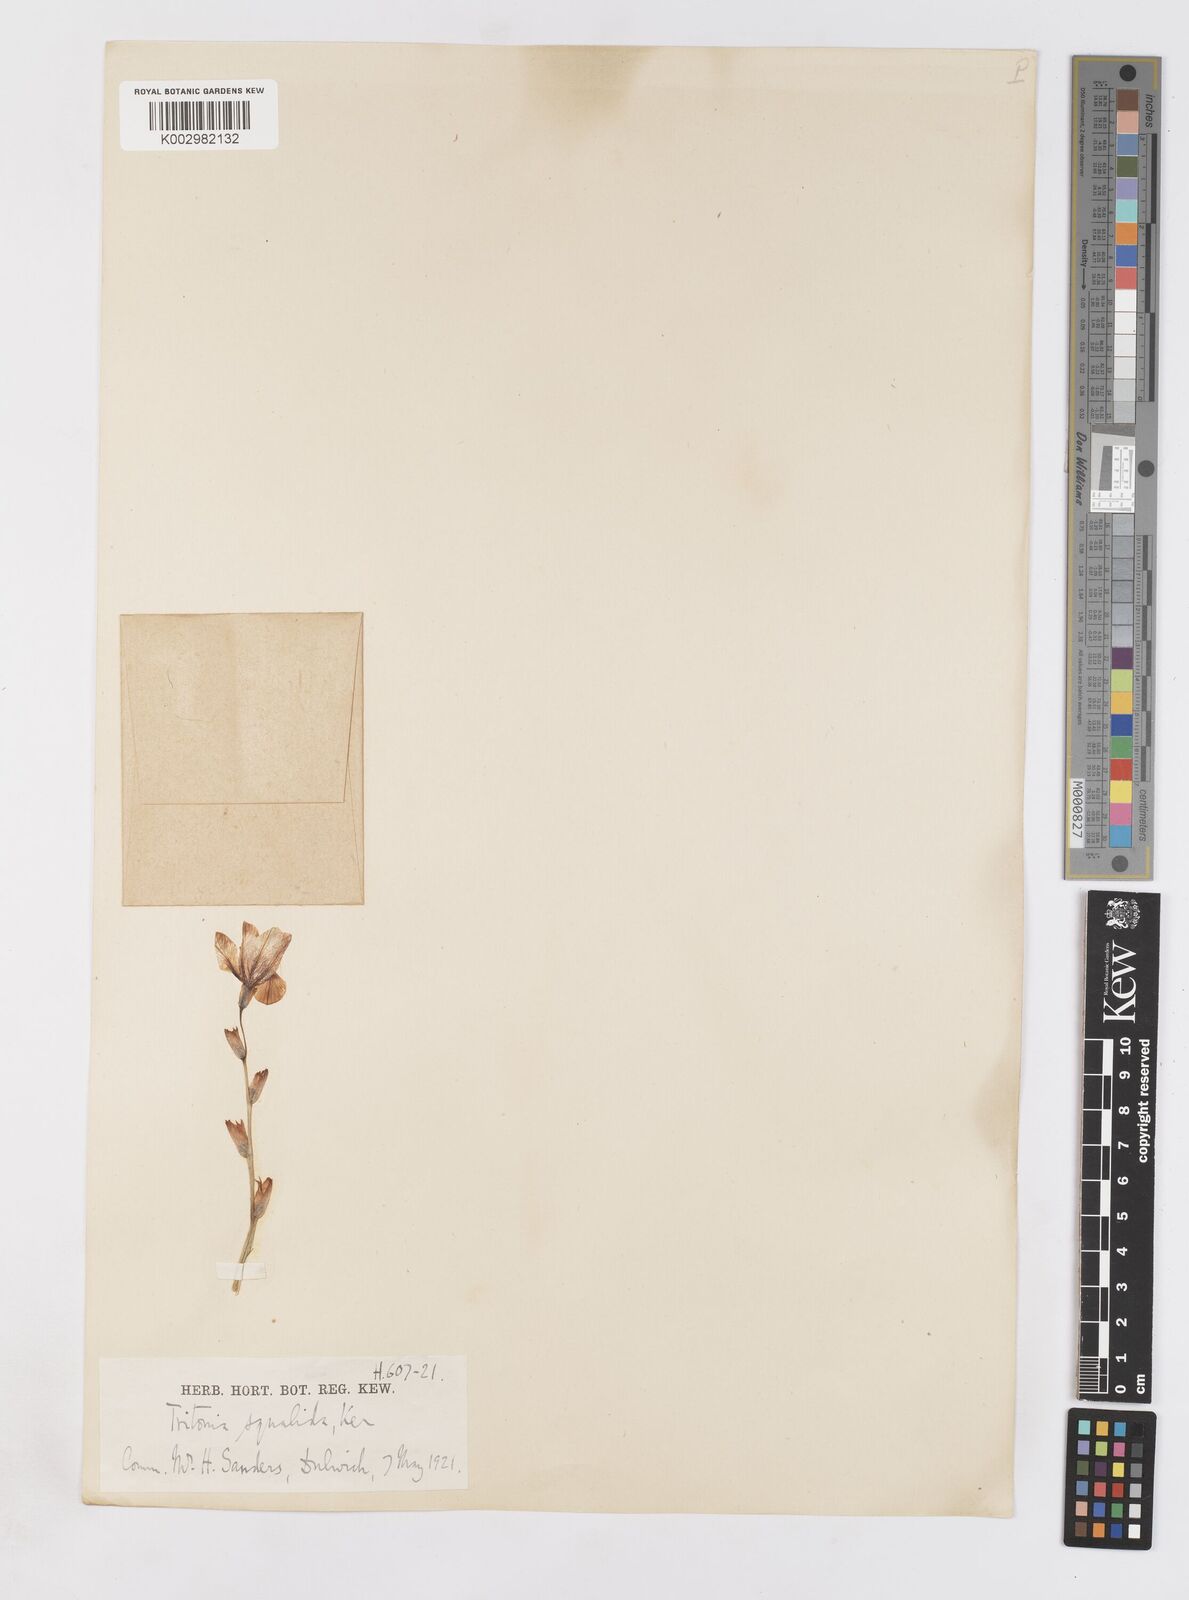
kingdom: Plantae
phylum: Tracheophyta
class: Liliopsida
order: Asparagales
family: Iridaceae
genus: Tritonia
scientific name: Tritonia squalida
